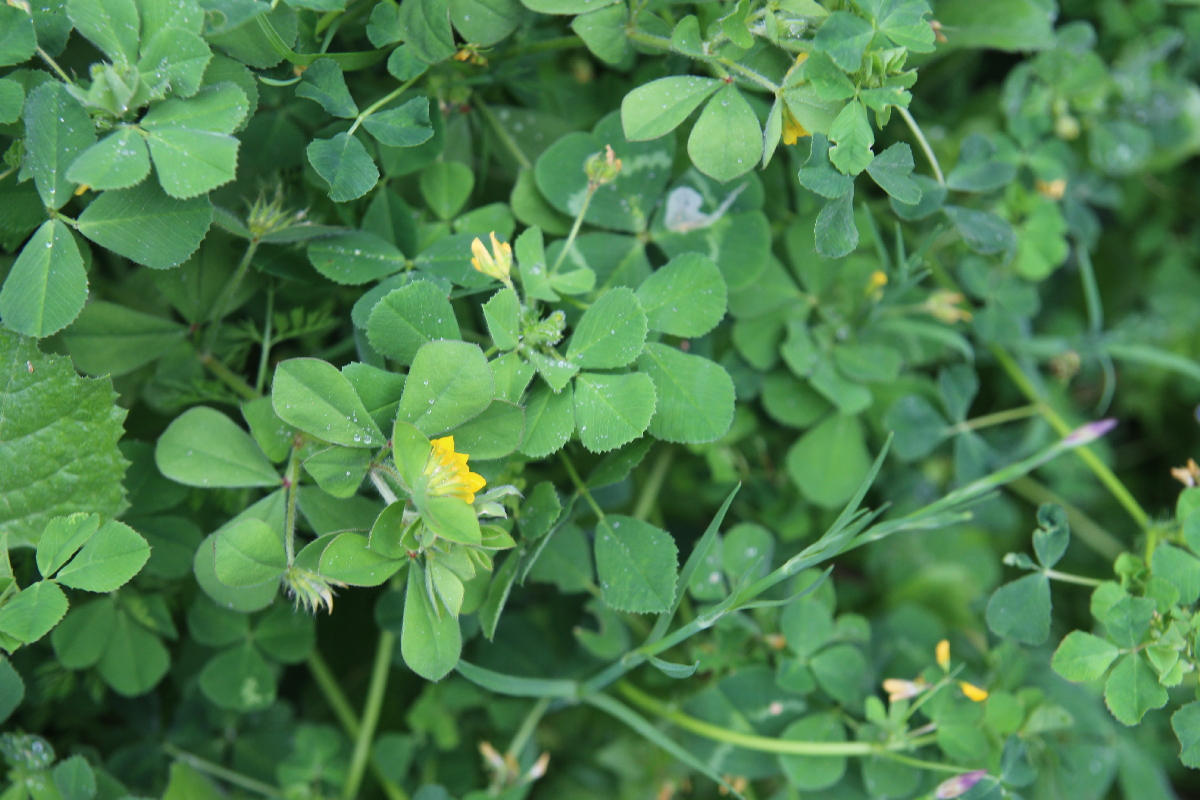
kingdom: Plantae
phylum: Tracheophyta
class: Magnoliopsida
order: Fabales
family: Fabaceae
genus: Lotus
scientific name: Lotus ornithopodioides
